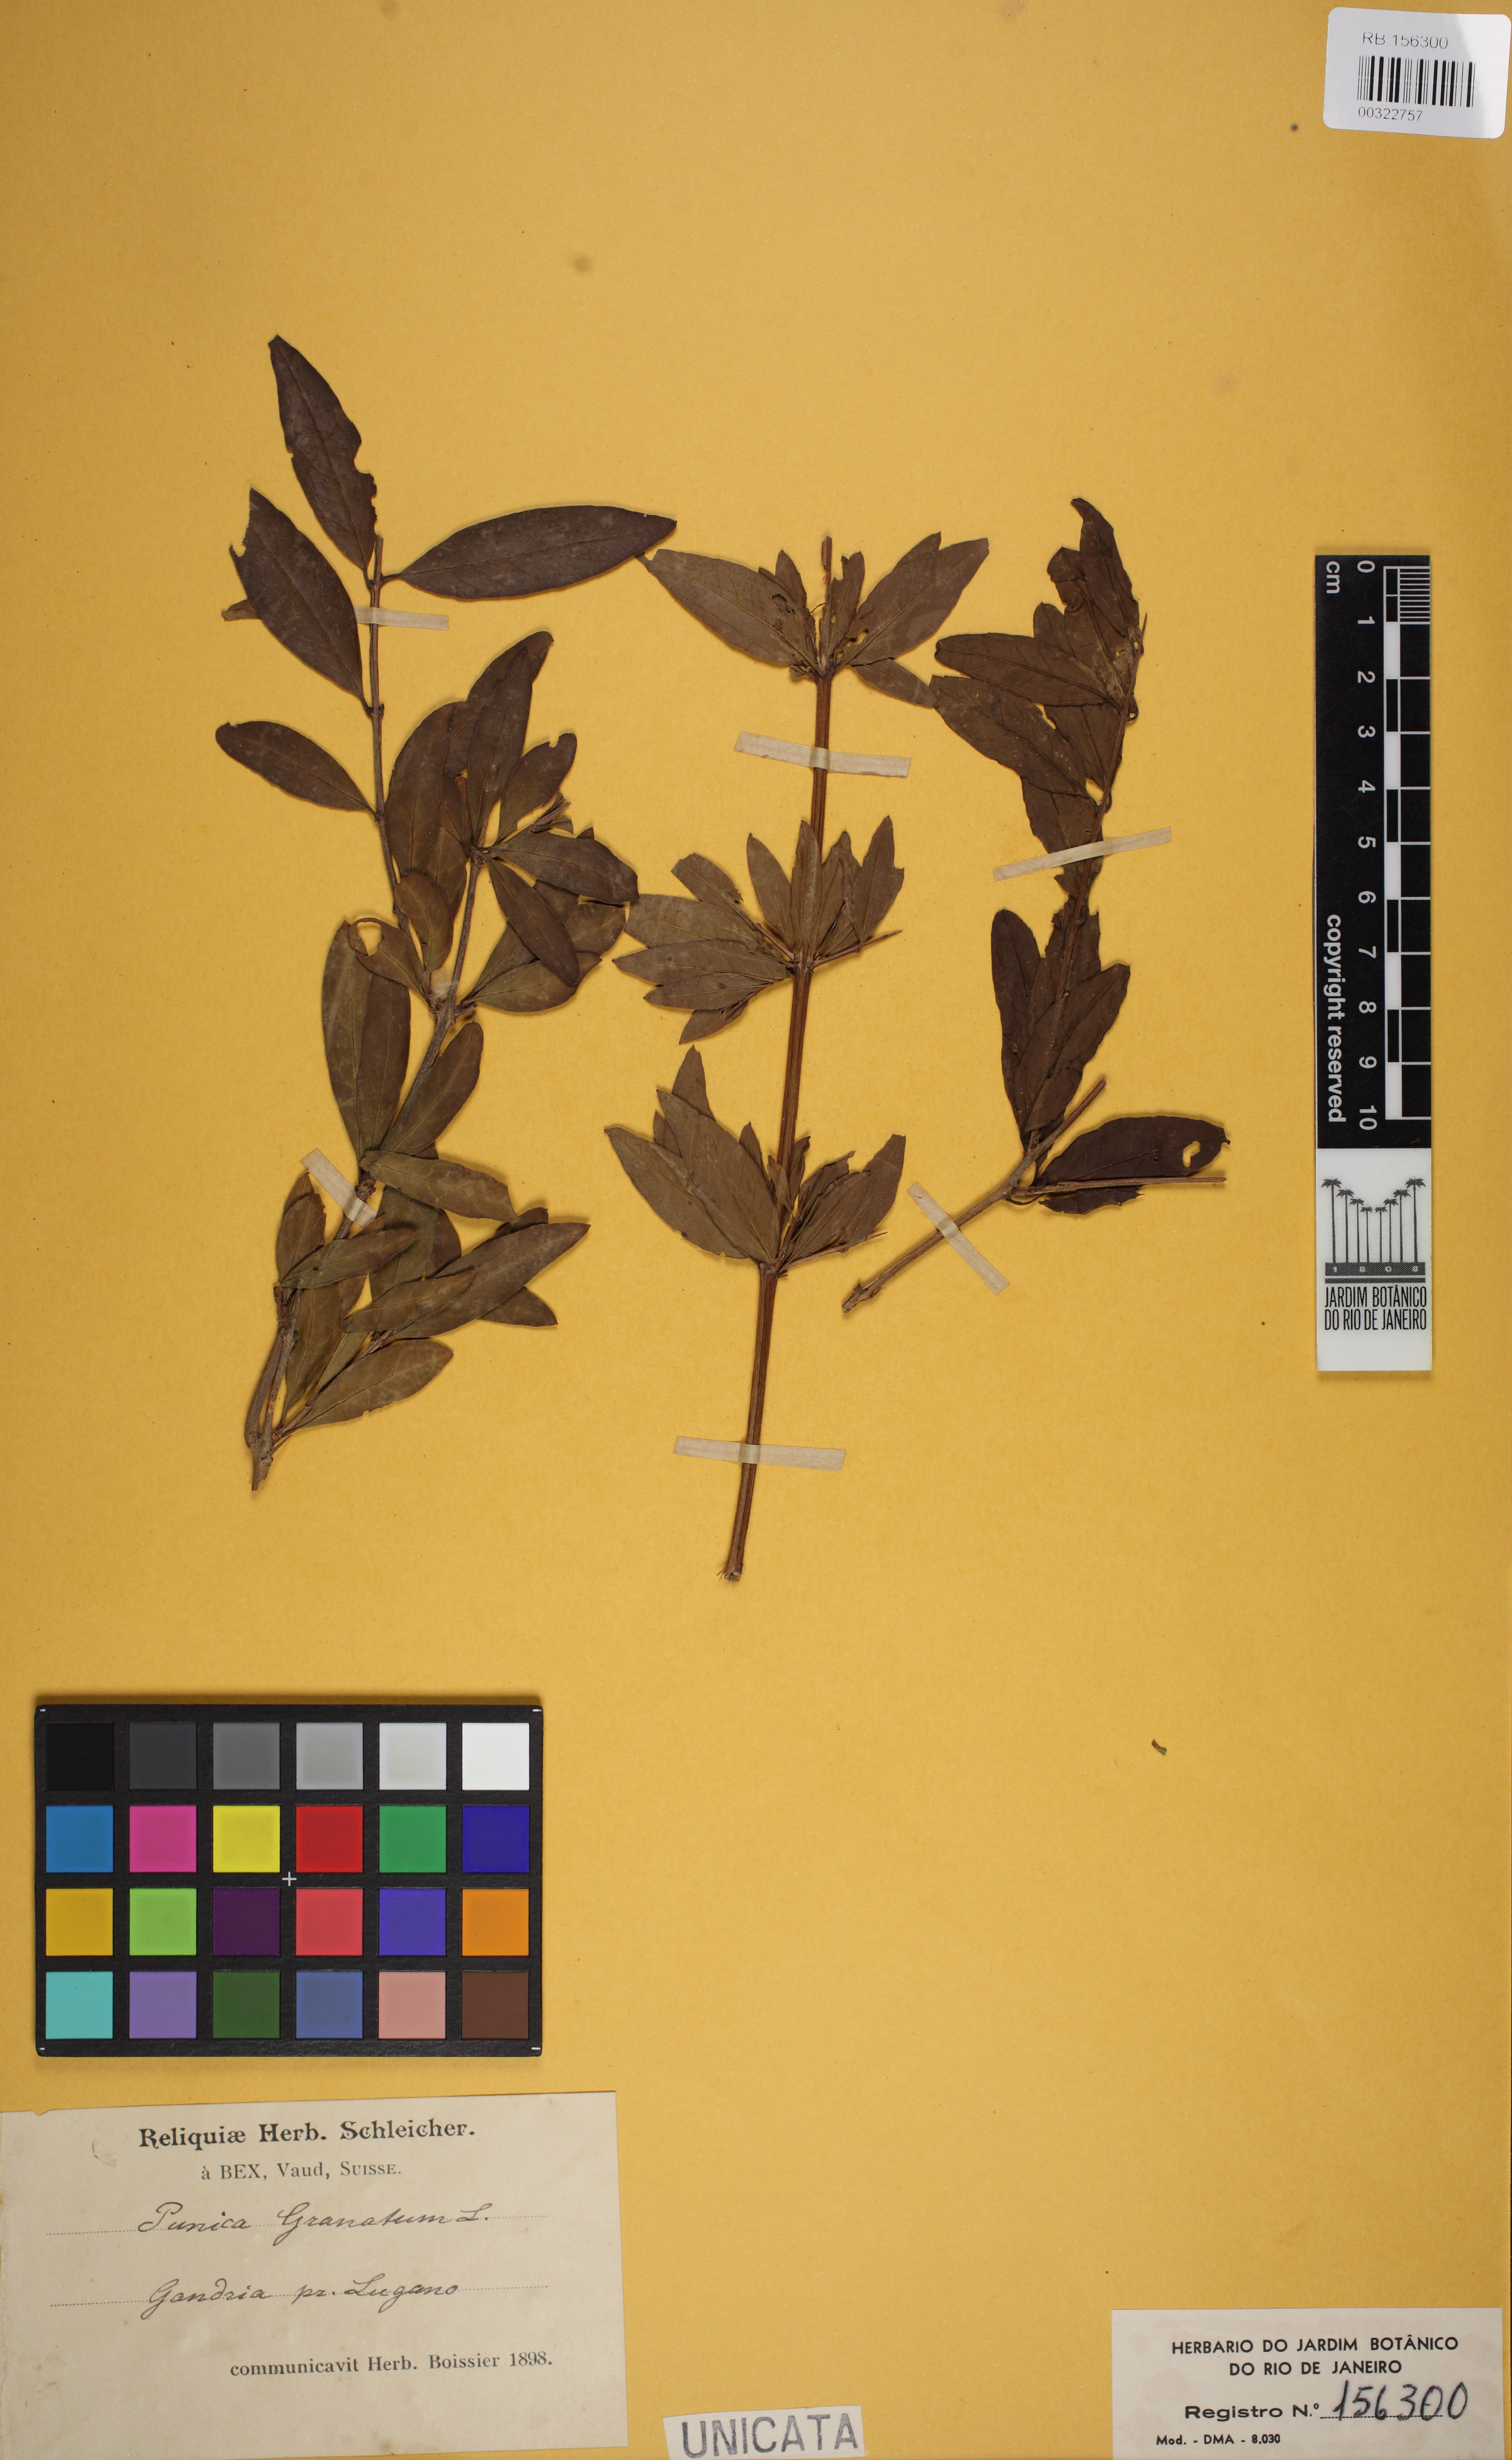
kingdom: Plantae
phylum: Tracheophyta
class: Magnoliopsida
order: Myrtales
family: Lythraceae
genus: Punica
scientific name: Punica granatum
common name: Pomegranate
